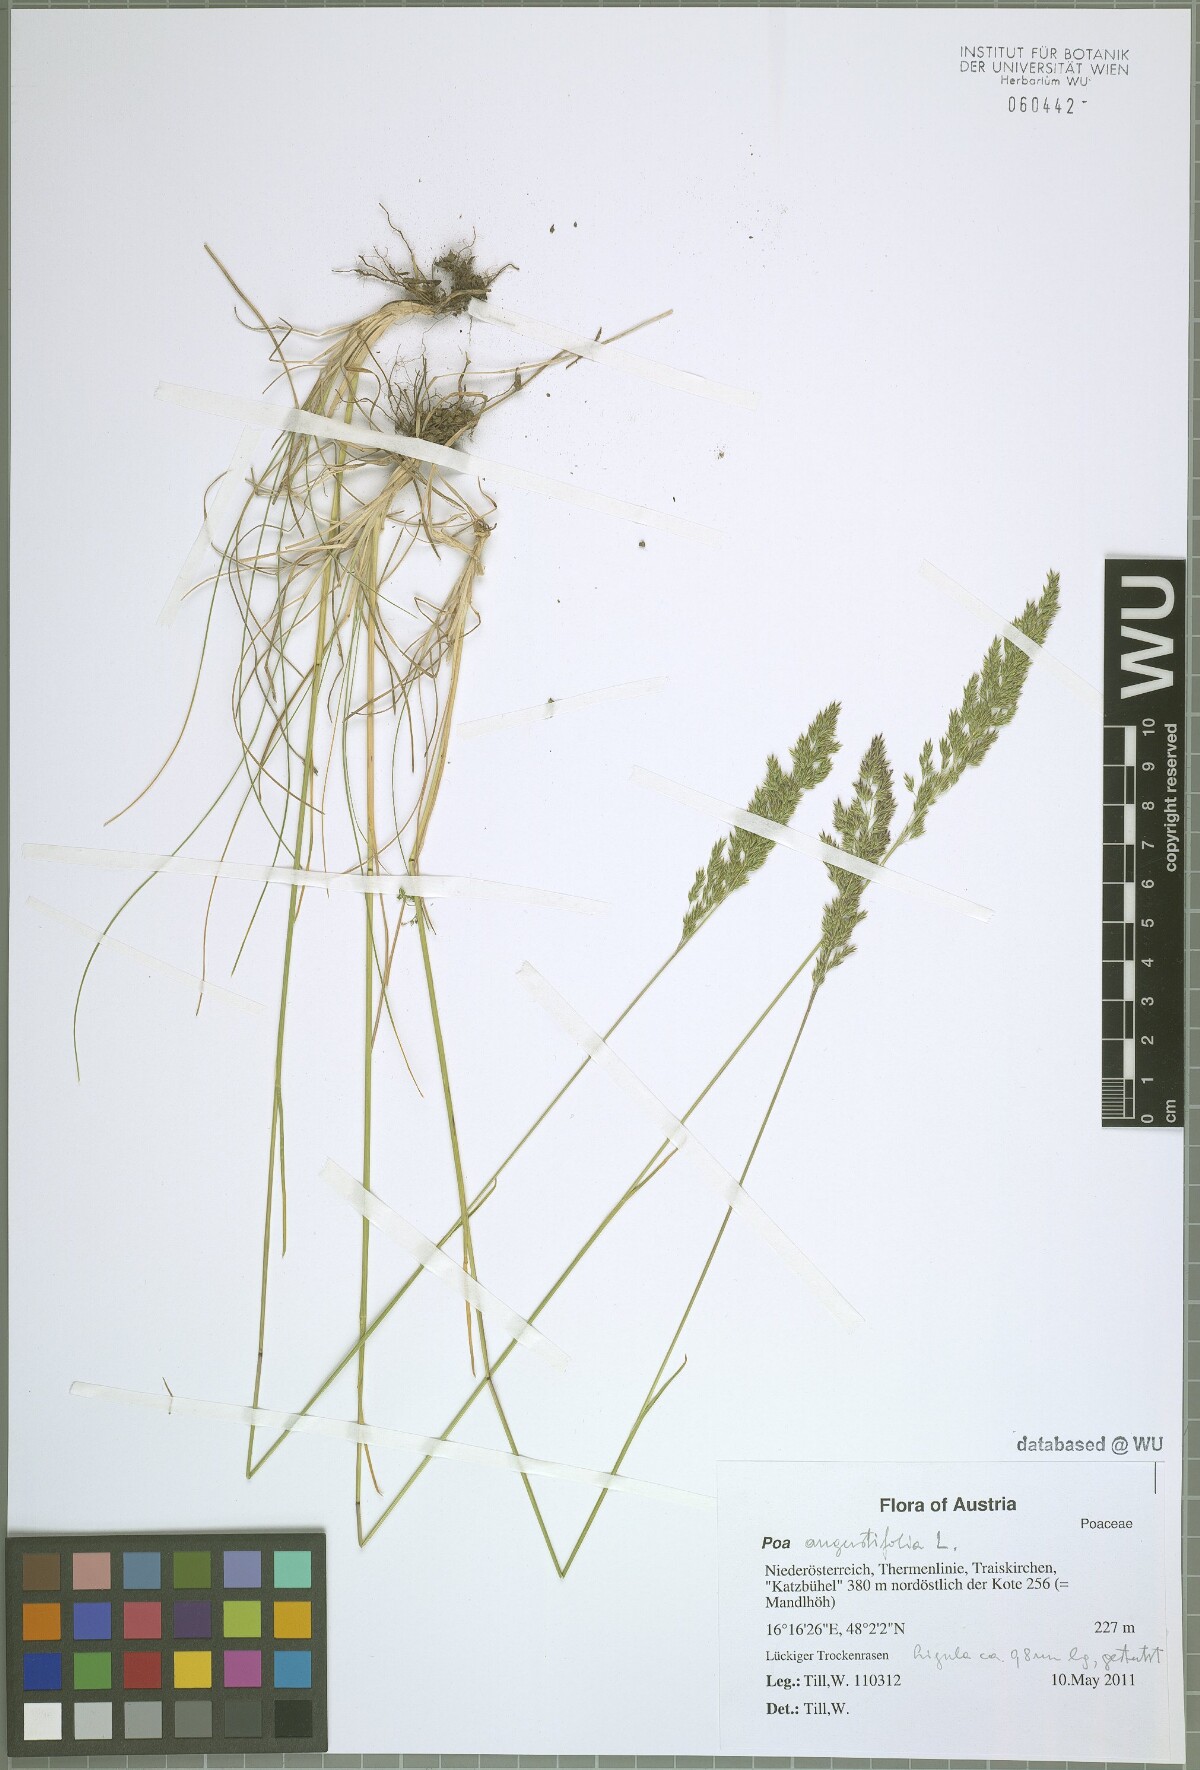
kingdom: Plantae
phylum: Tracheophyta
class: Liliopsida
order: Poales
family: Poaceae
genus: Poa
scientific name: Poa angustifolia
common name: Narrow-leaved meadow-grass
